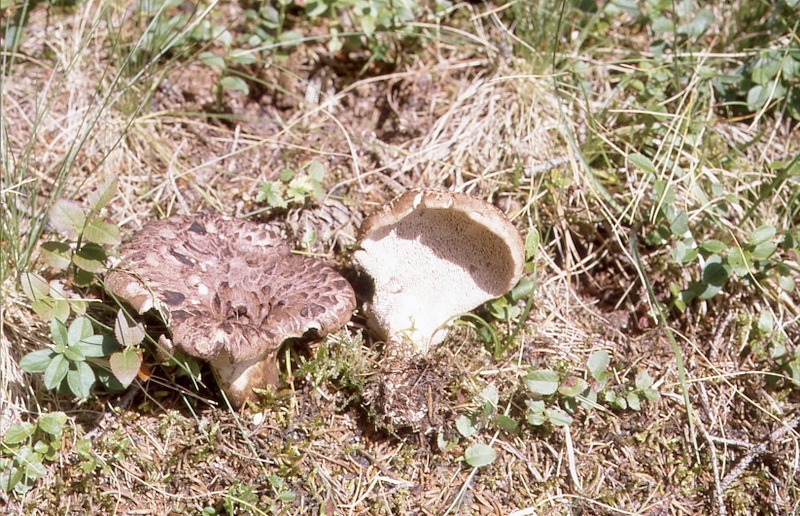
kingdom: Fungi
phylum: Basidiomycota
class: Agaricomycetes
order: Thelephorales
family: Bankeraceae
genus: Sarcodon
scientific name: Sarcodon imbricatus
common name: Shingled hedgehog
